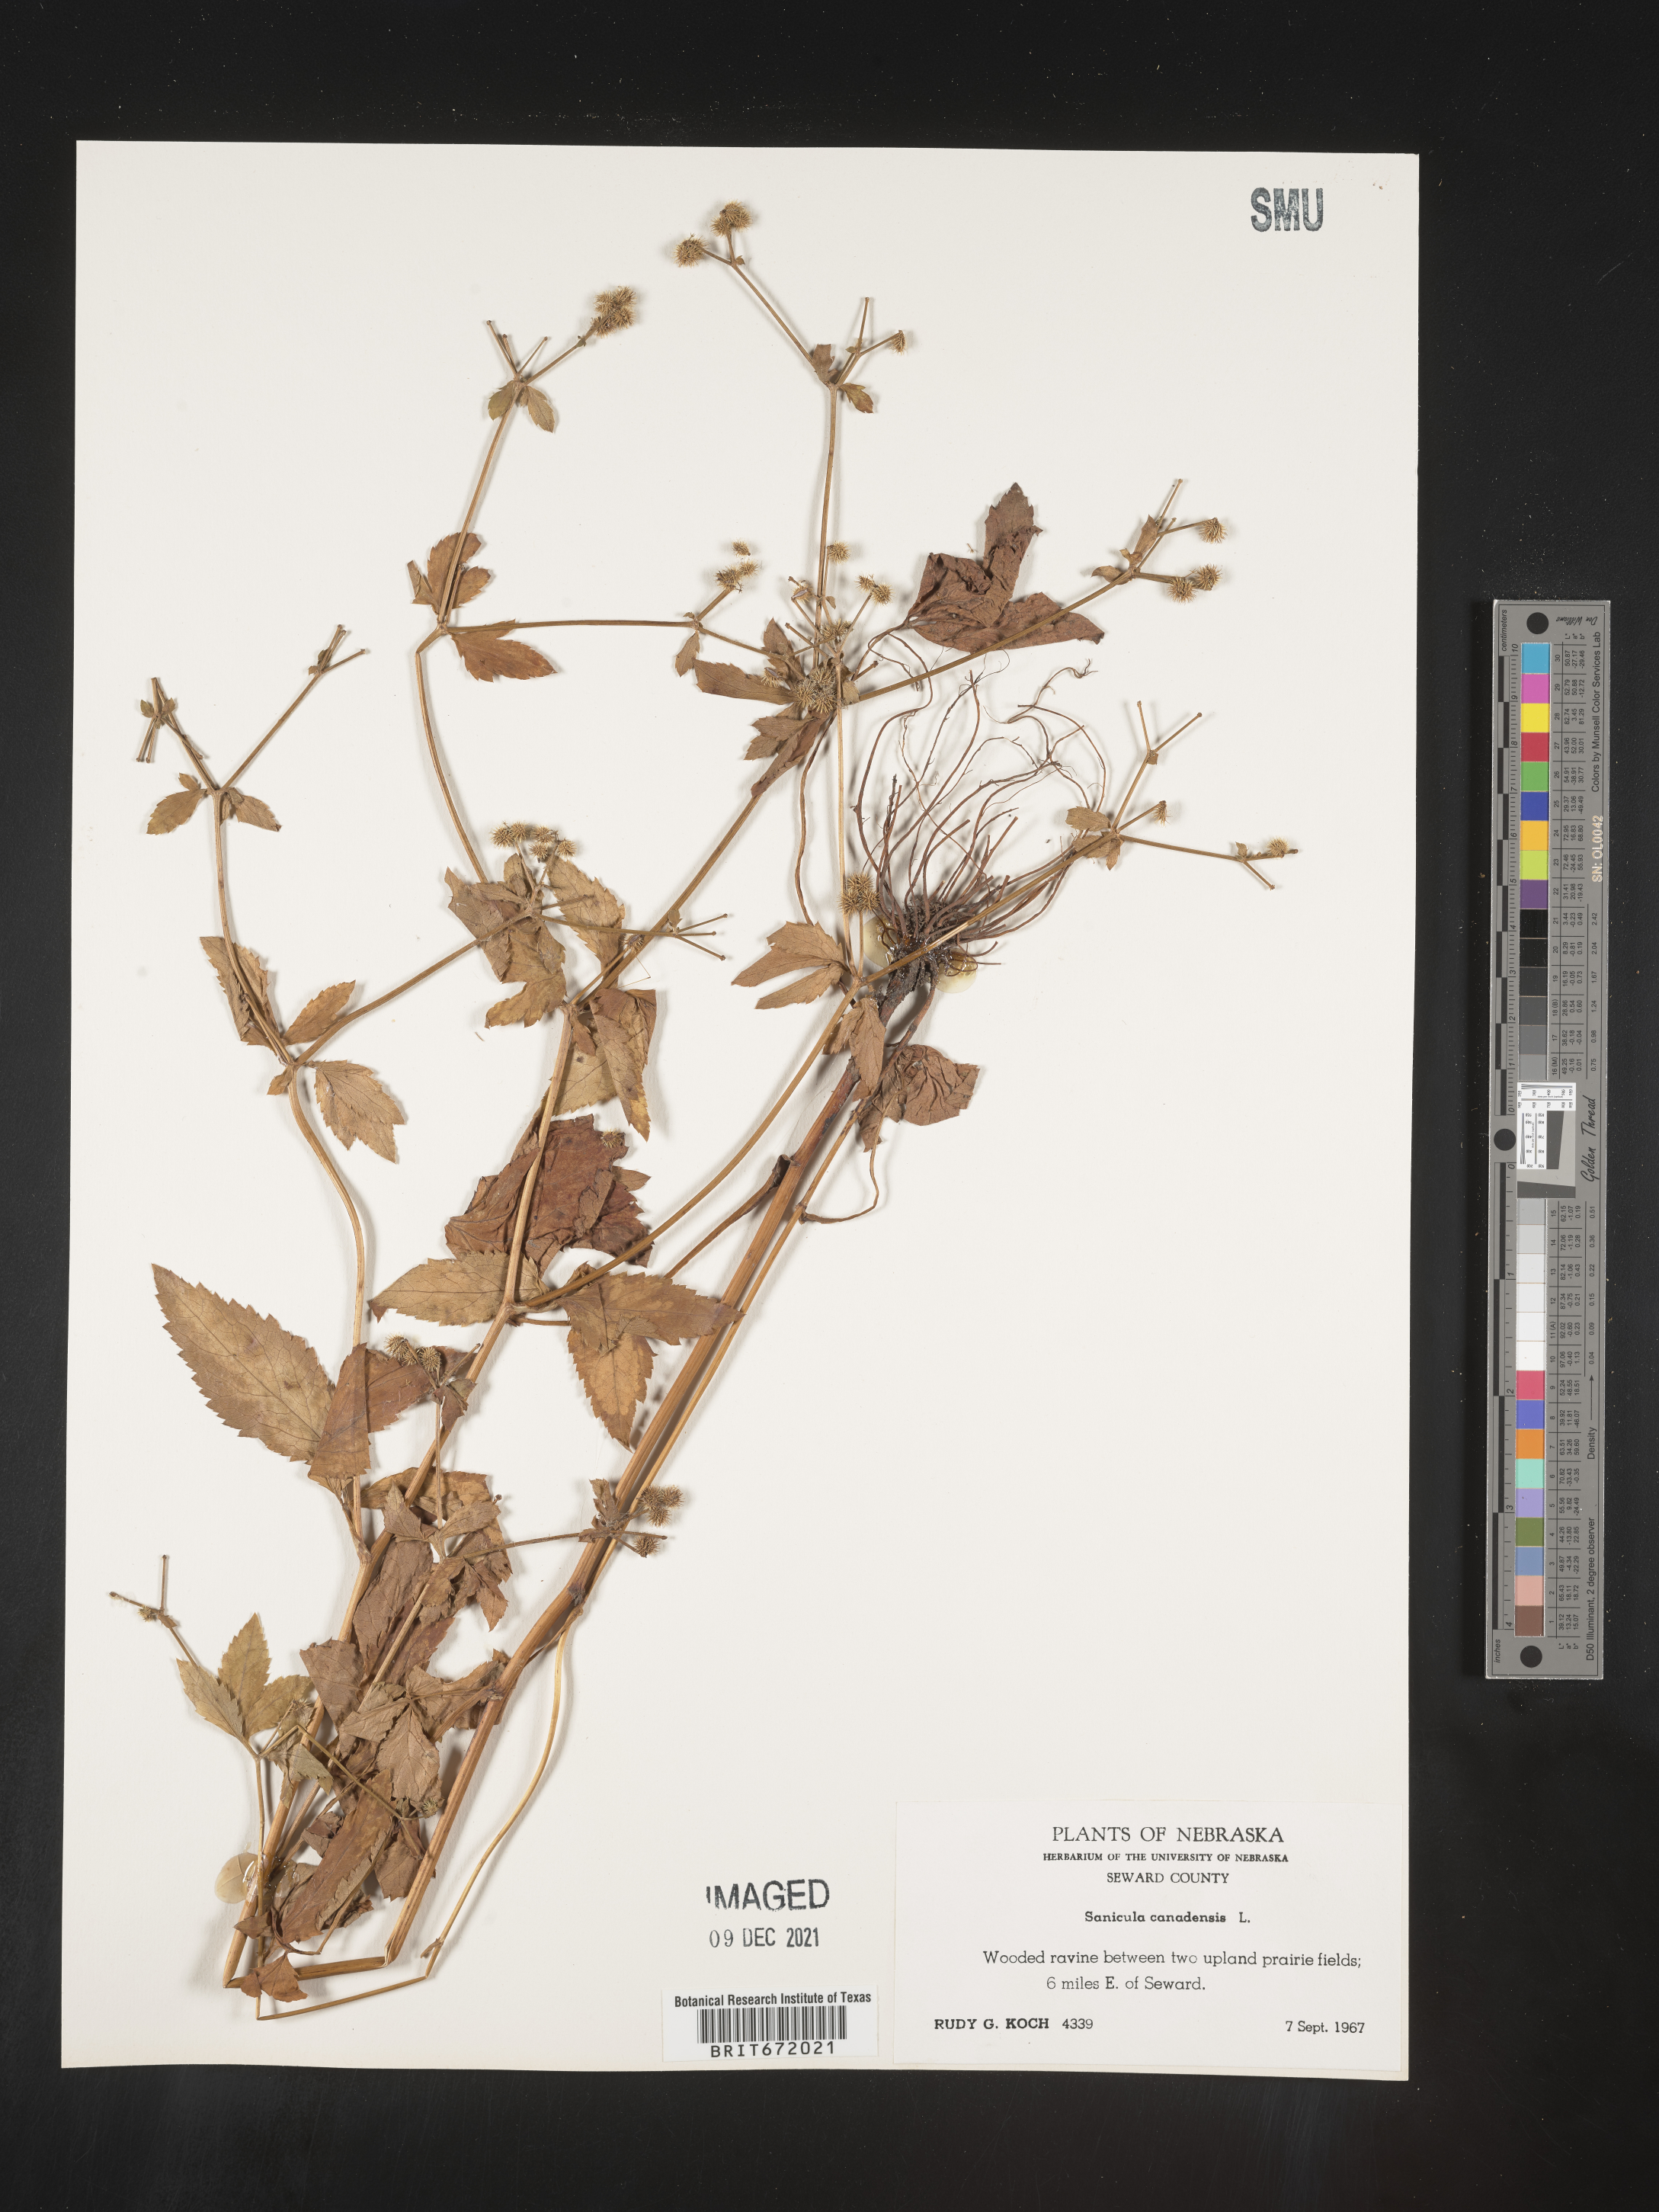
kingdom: Plantae
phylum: Tracheophyta
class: Magnoliopsida
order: Apiales
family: Apiaceae
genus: Sanicula
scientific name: Sanicula canadensis
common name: Canada sanicle
